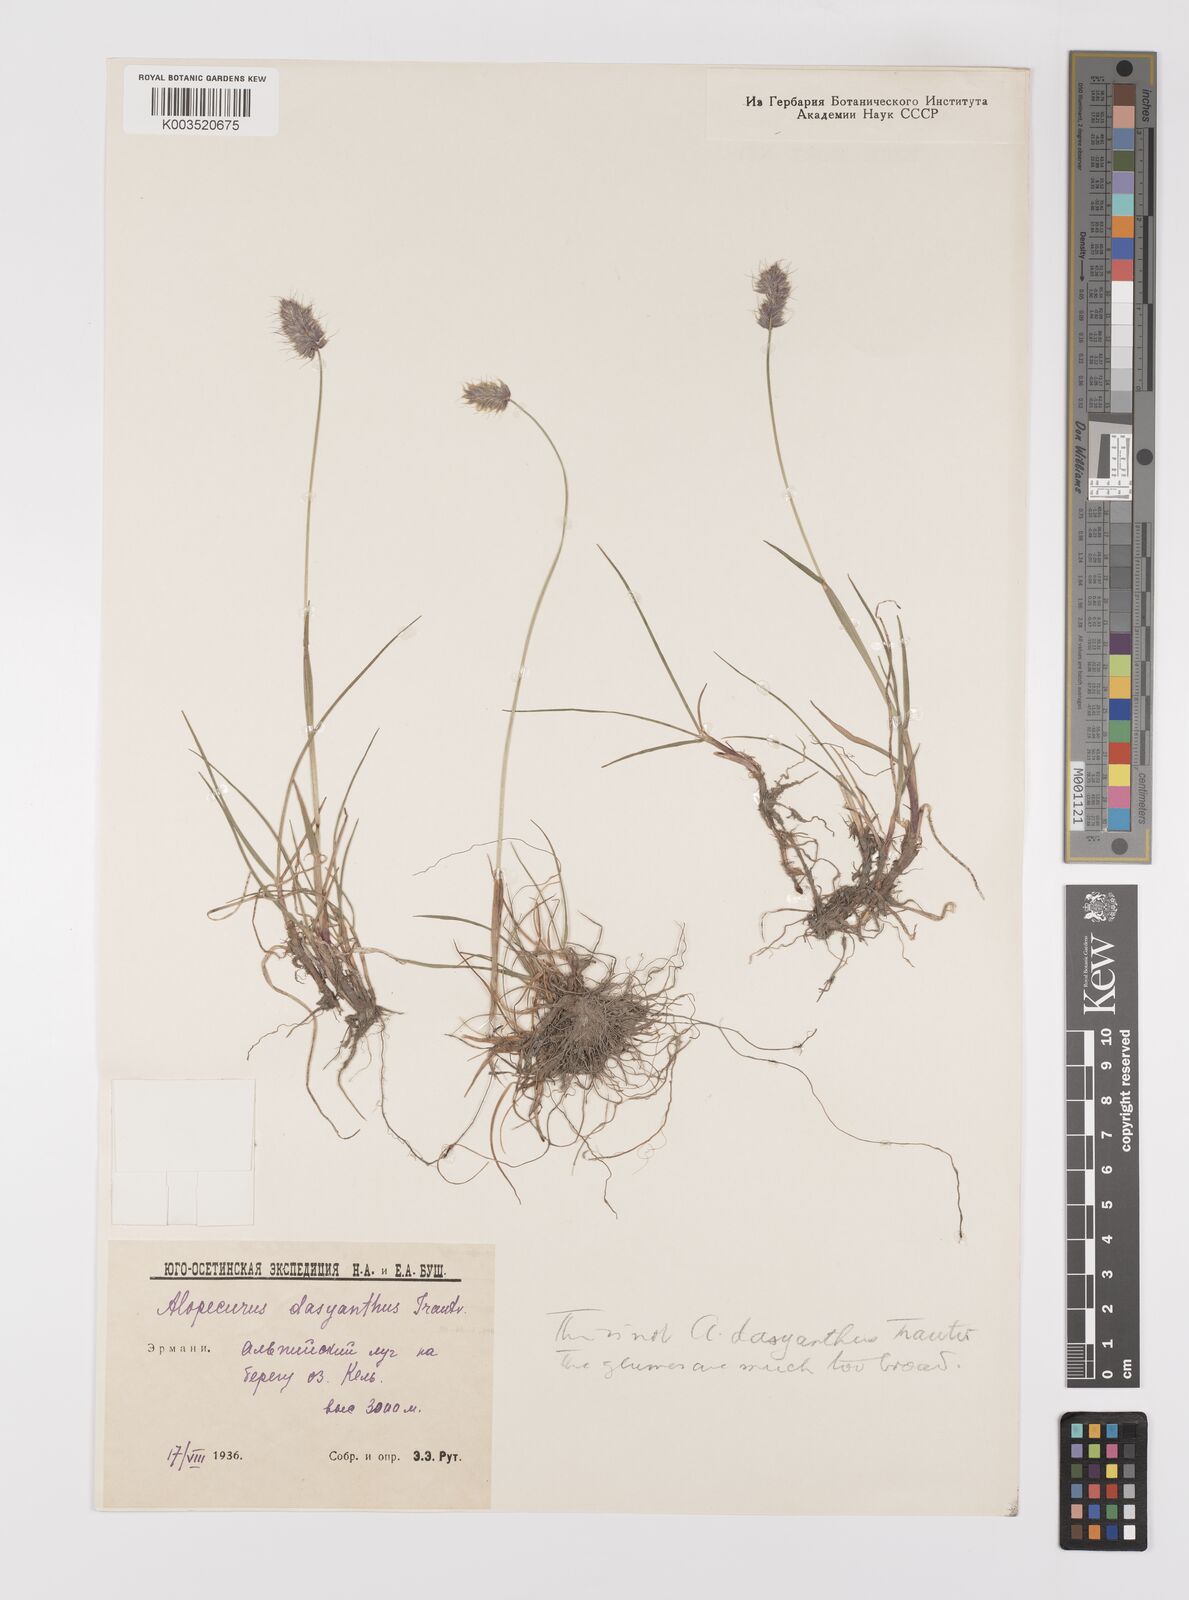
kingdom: Plantae
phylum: Tracheophyta
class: Liliopsida
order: Poales
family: Poaceae
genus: Alopecurus
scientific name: Alopecurus dasyanthus
